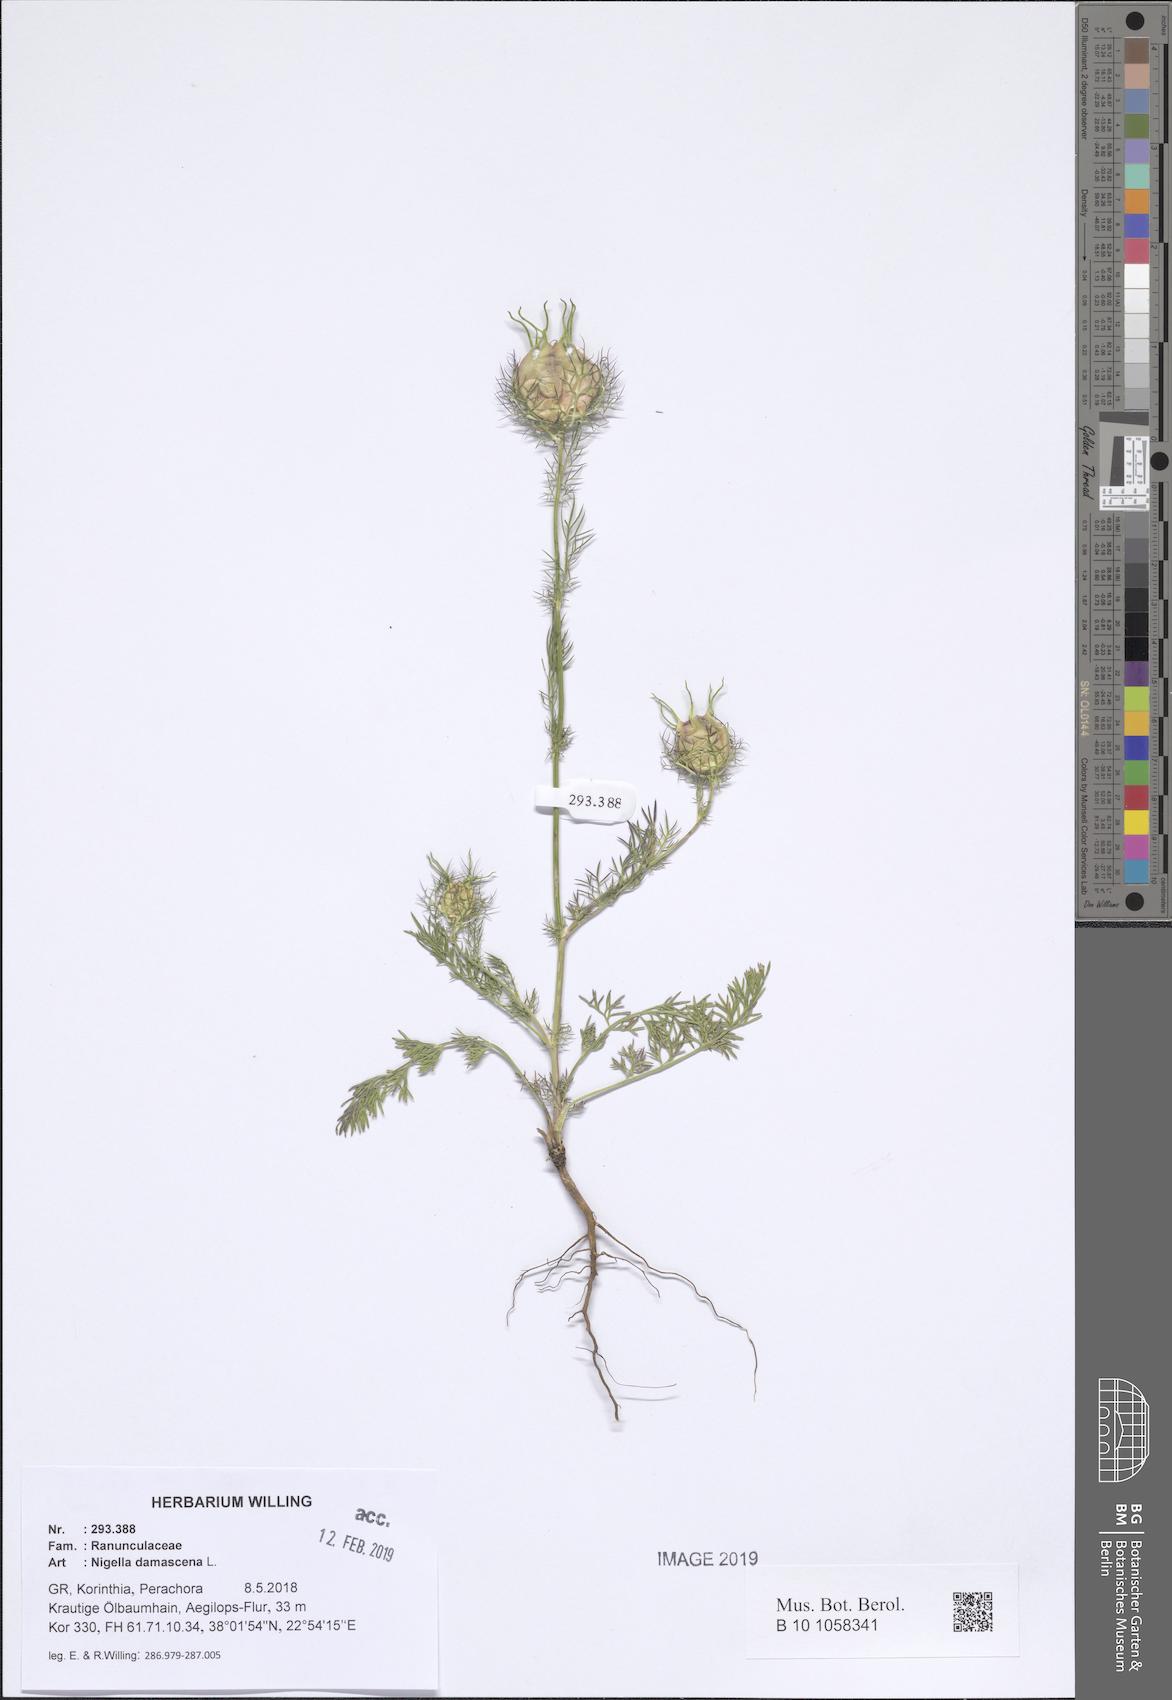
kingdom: Plantae
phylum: Tracheophyta
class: Magnoliopsida
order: Ranunculales
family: Ranunculaceae
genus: Nigella
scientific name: Nigella damascena
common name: Love-in-a-mist
